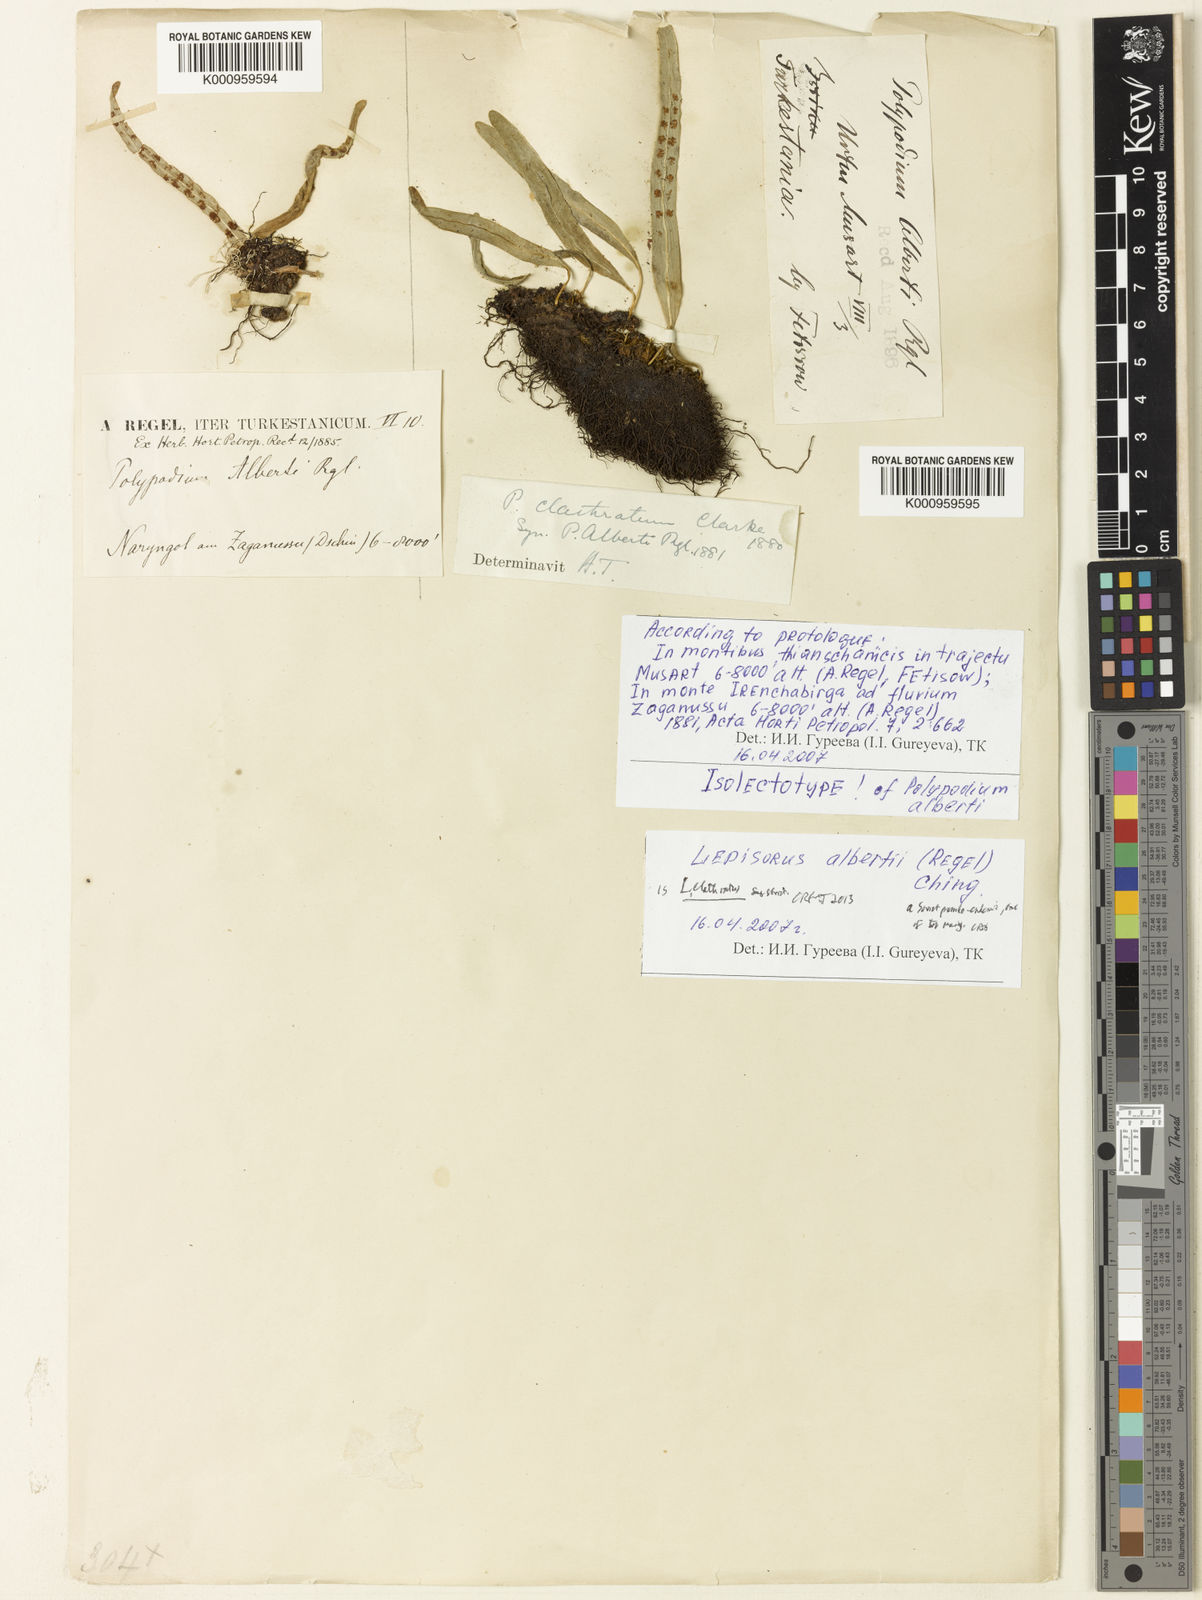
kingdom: Plantae
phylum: Tracheophyta
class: Polypodiopsida
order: Polypodiales
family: Polypodiaceae
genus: Lepisorus
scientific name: Lepisorus clathratus
